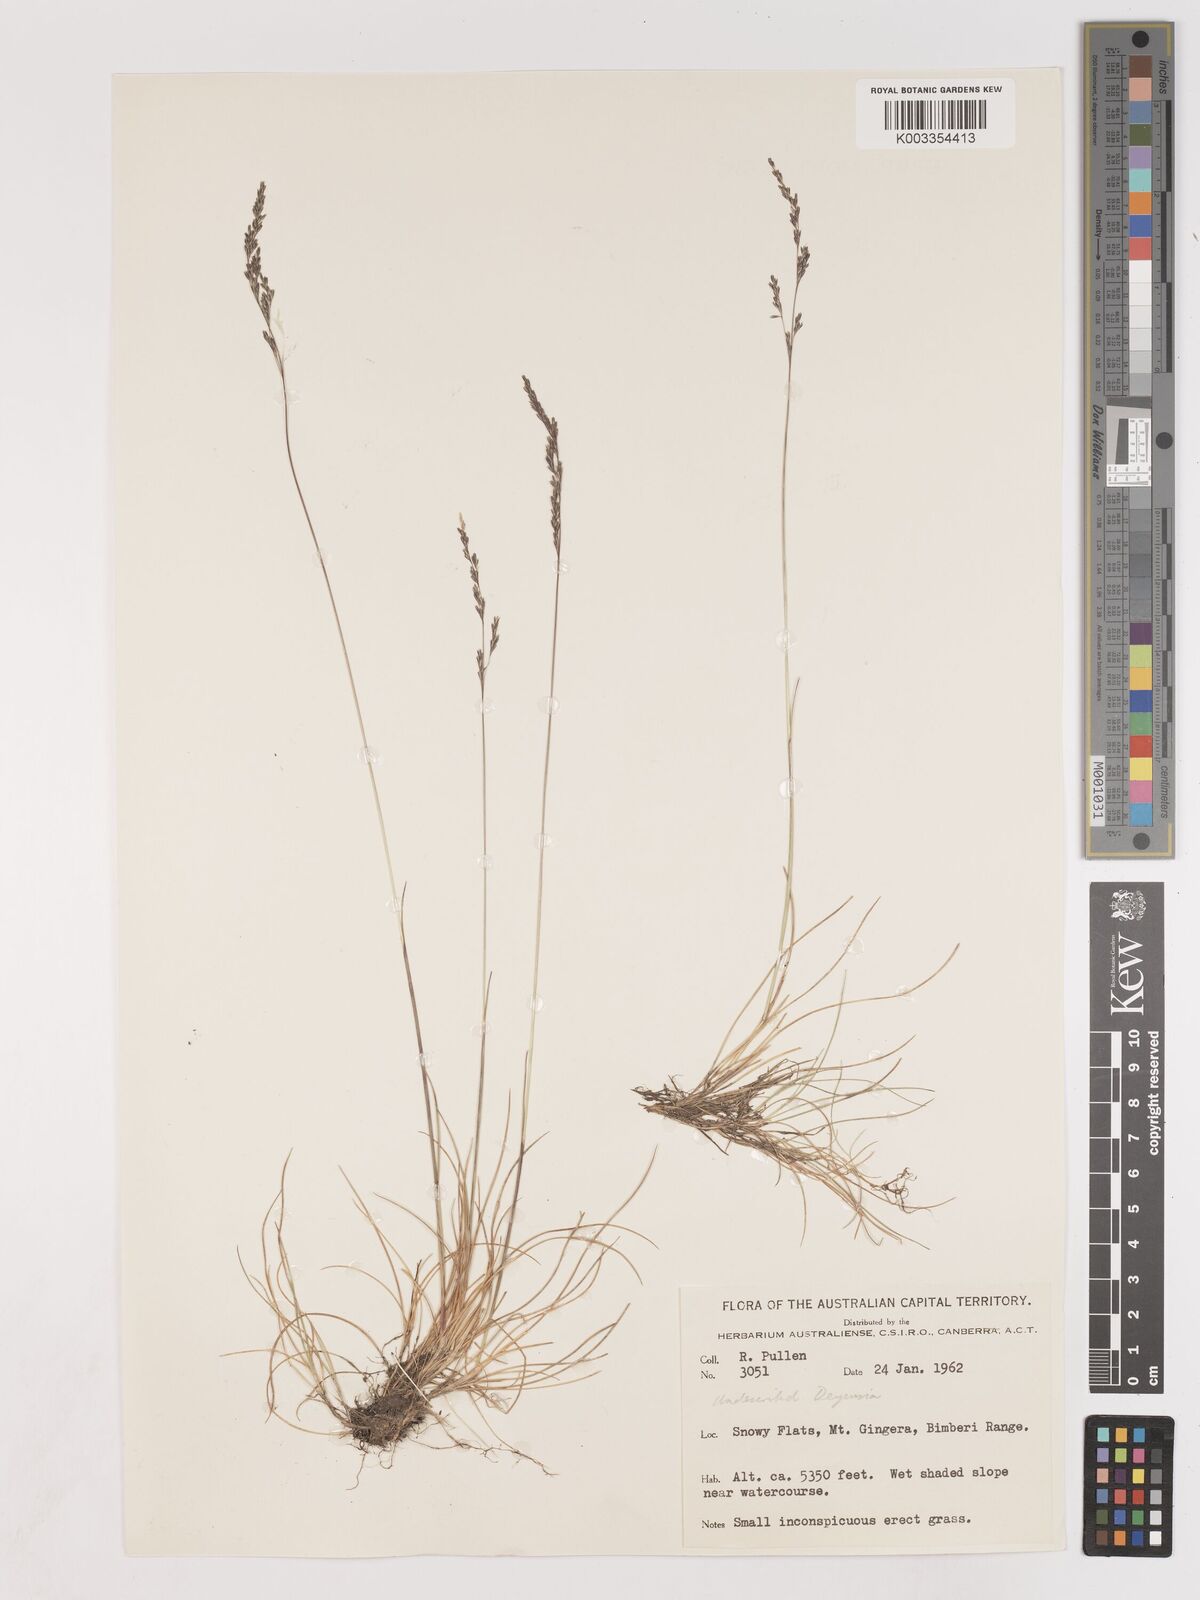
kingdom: Plantae
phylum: Tracheophyta
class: Liliopsida
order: Poales
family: Poaceae
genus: Calamagrostis
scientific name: Calamagrostis
